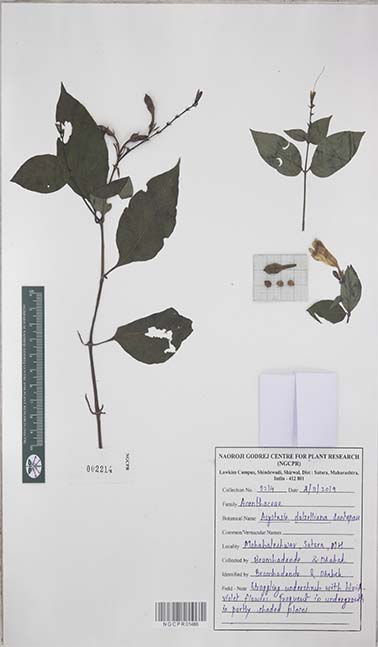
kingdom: Plantae
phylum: Tracheophyta
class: Magnoliopsida
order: Lamiales
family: Acanthaceae
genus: Asystasia
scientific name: Asystasia dalzelliana
